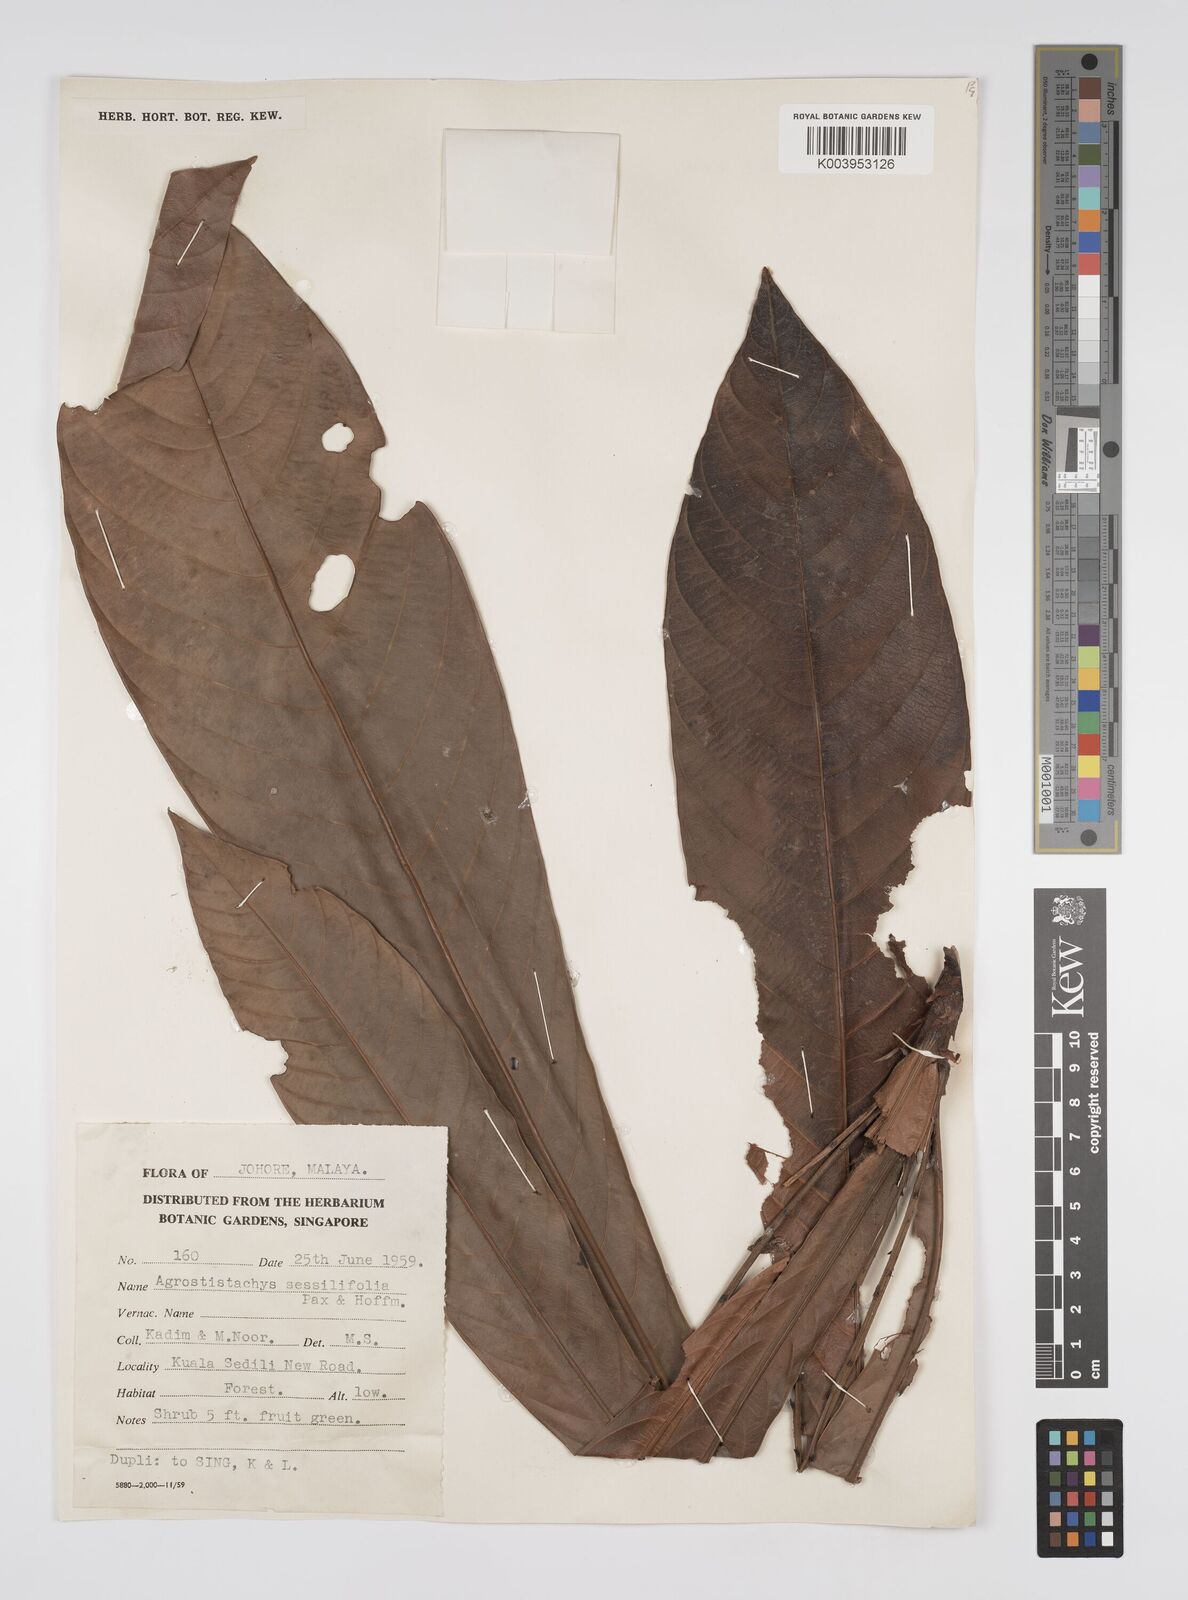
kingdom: Plantae
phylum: Tracheophyta
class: Magnoliopsida
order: Malpighiales
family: Euphorbiaceae
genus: Agrostistachys
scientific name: Agrostistachys sessilifolia
